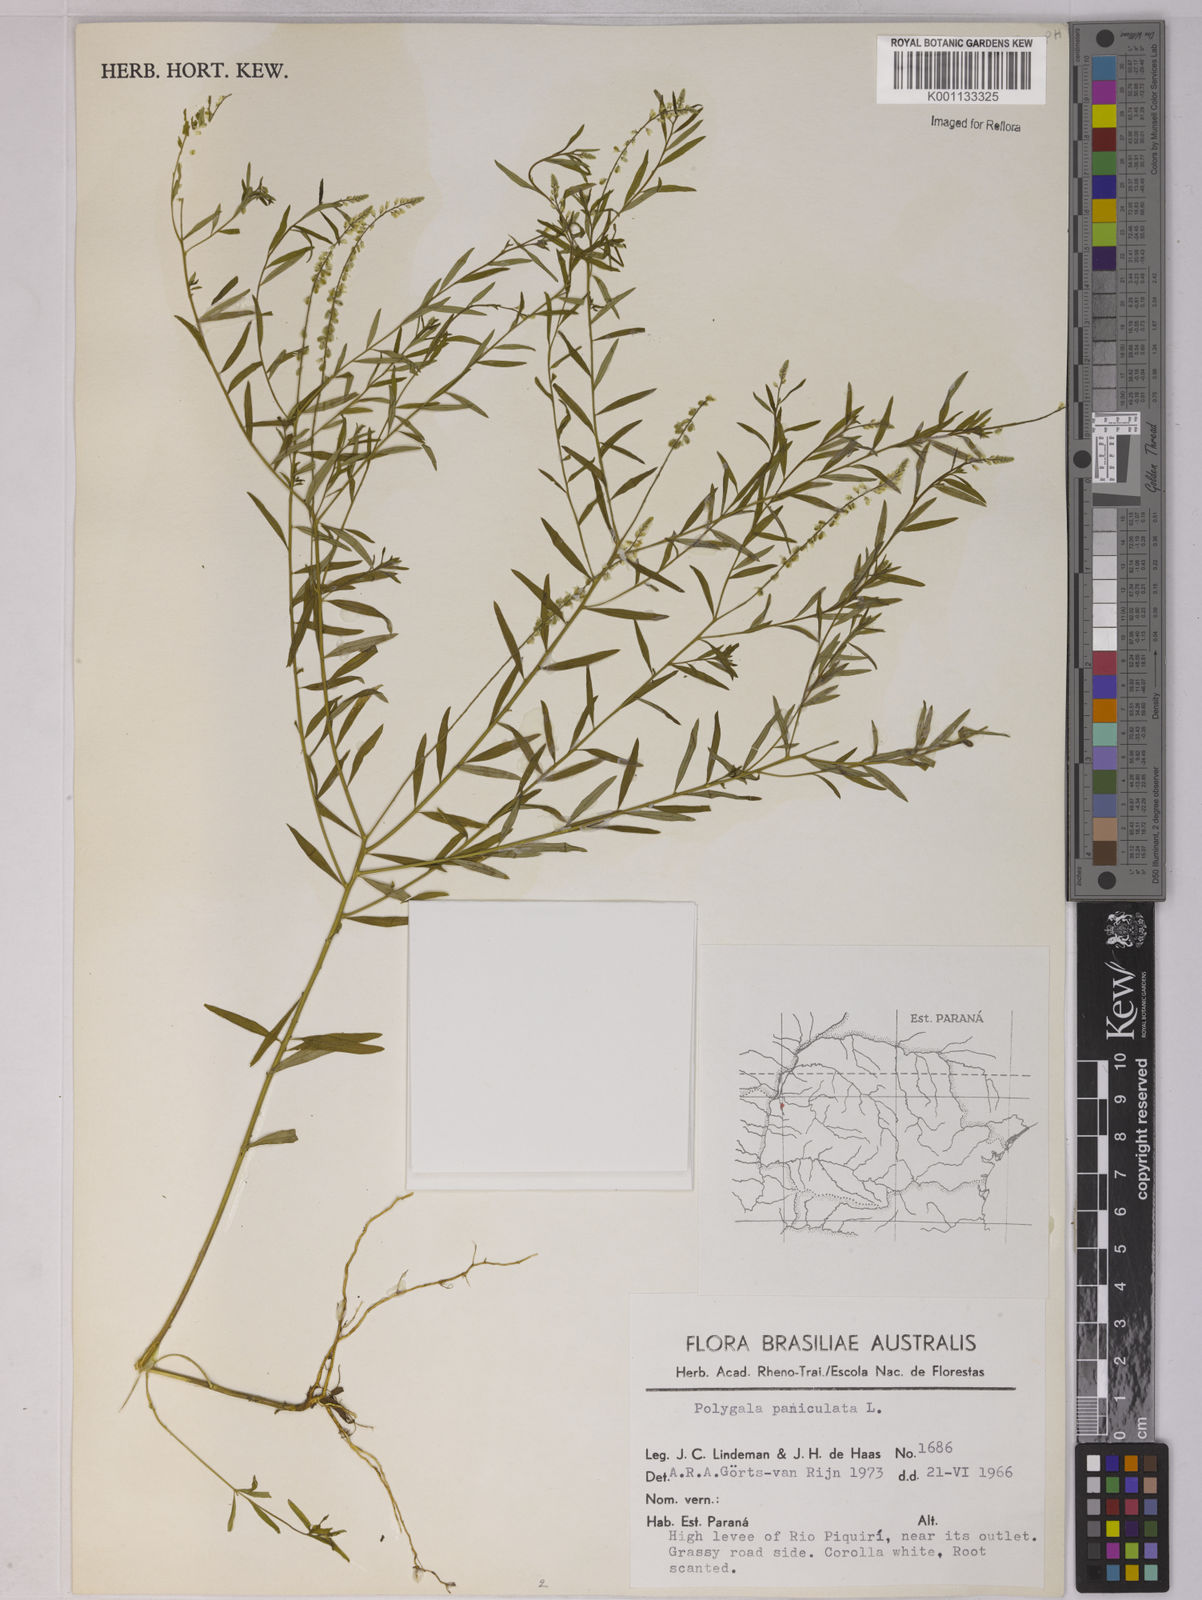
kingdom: Plantae
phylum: Tracheophyta
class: Magnoliopsida
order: Fabales
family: Polygalaceae
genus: Polygala
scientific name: Polygala paniculata
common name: Orosne
